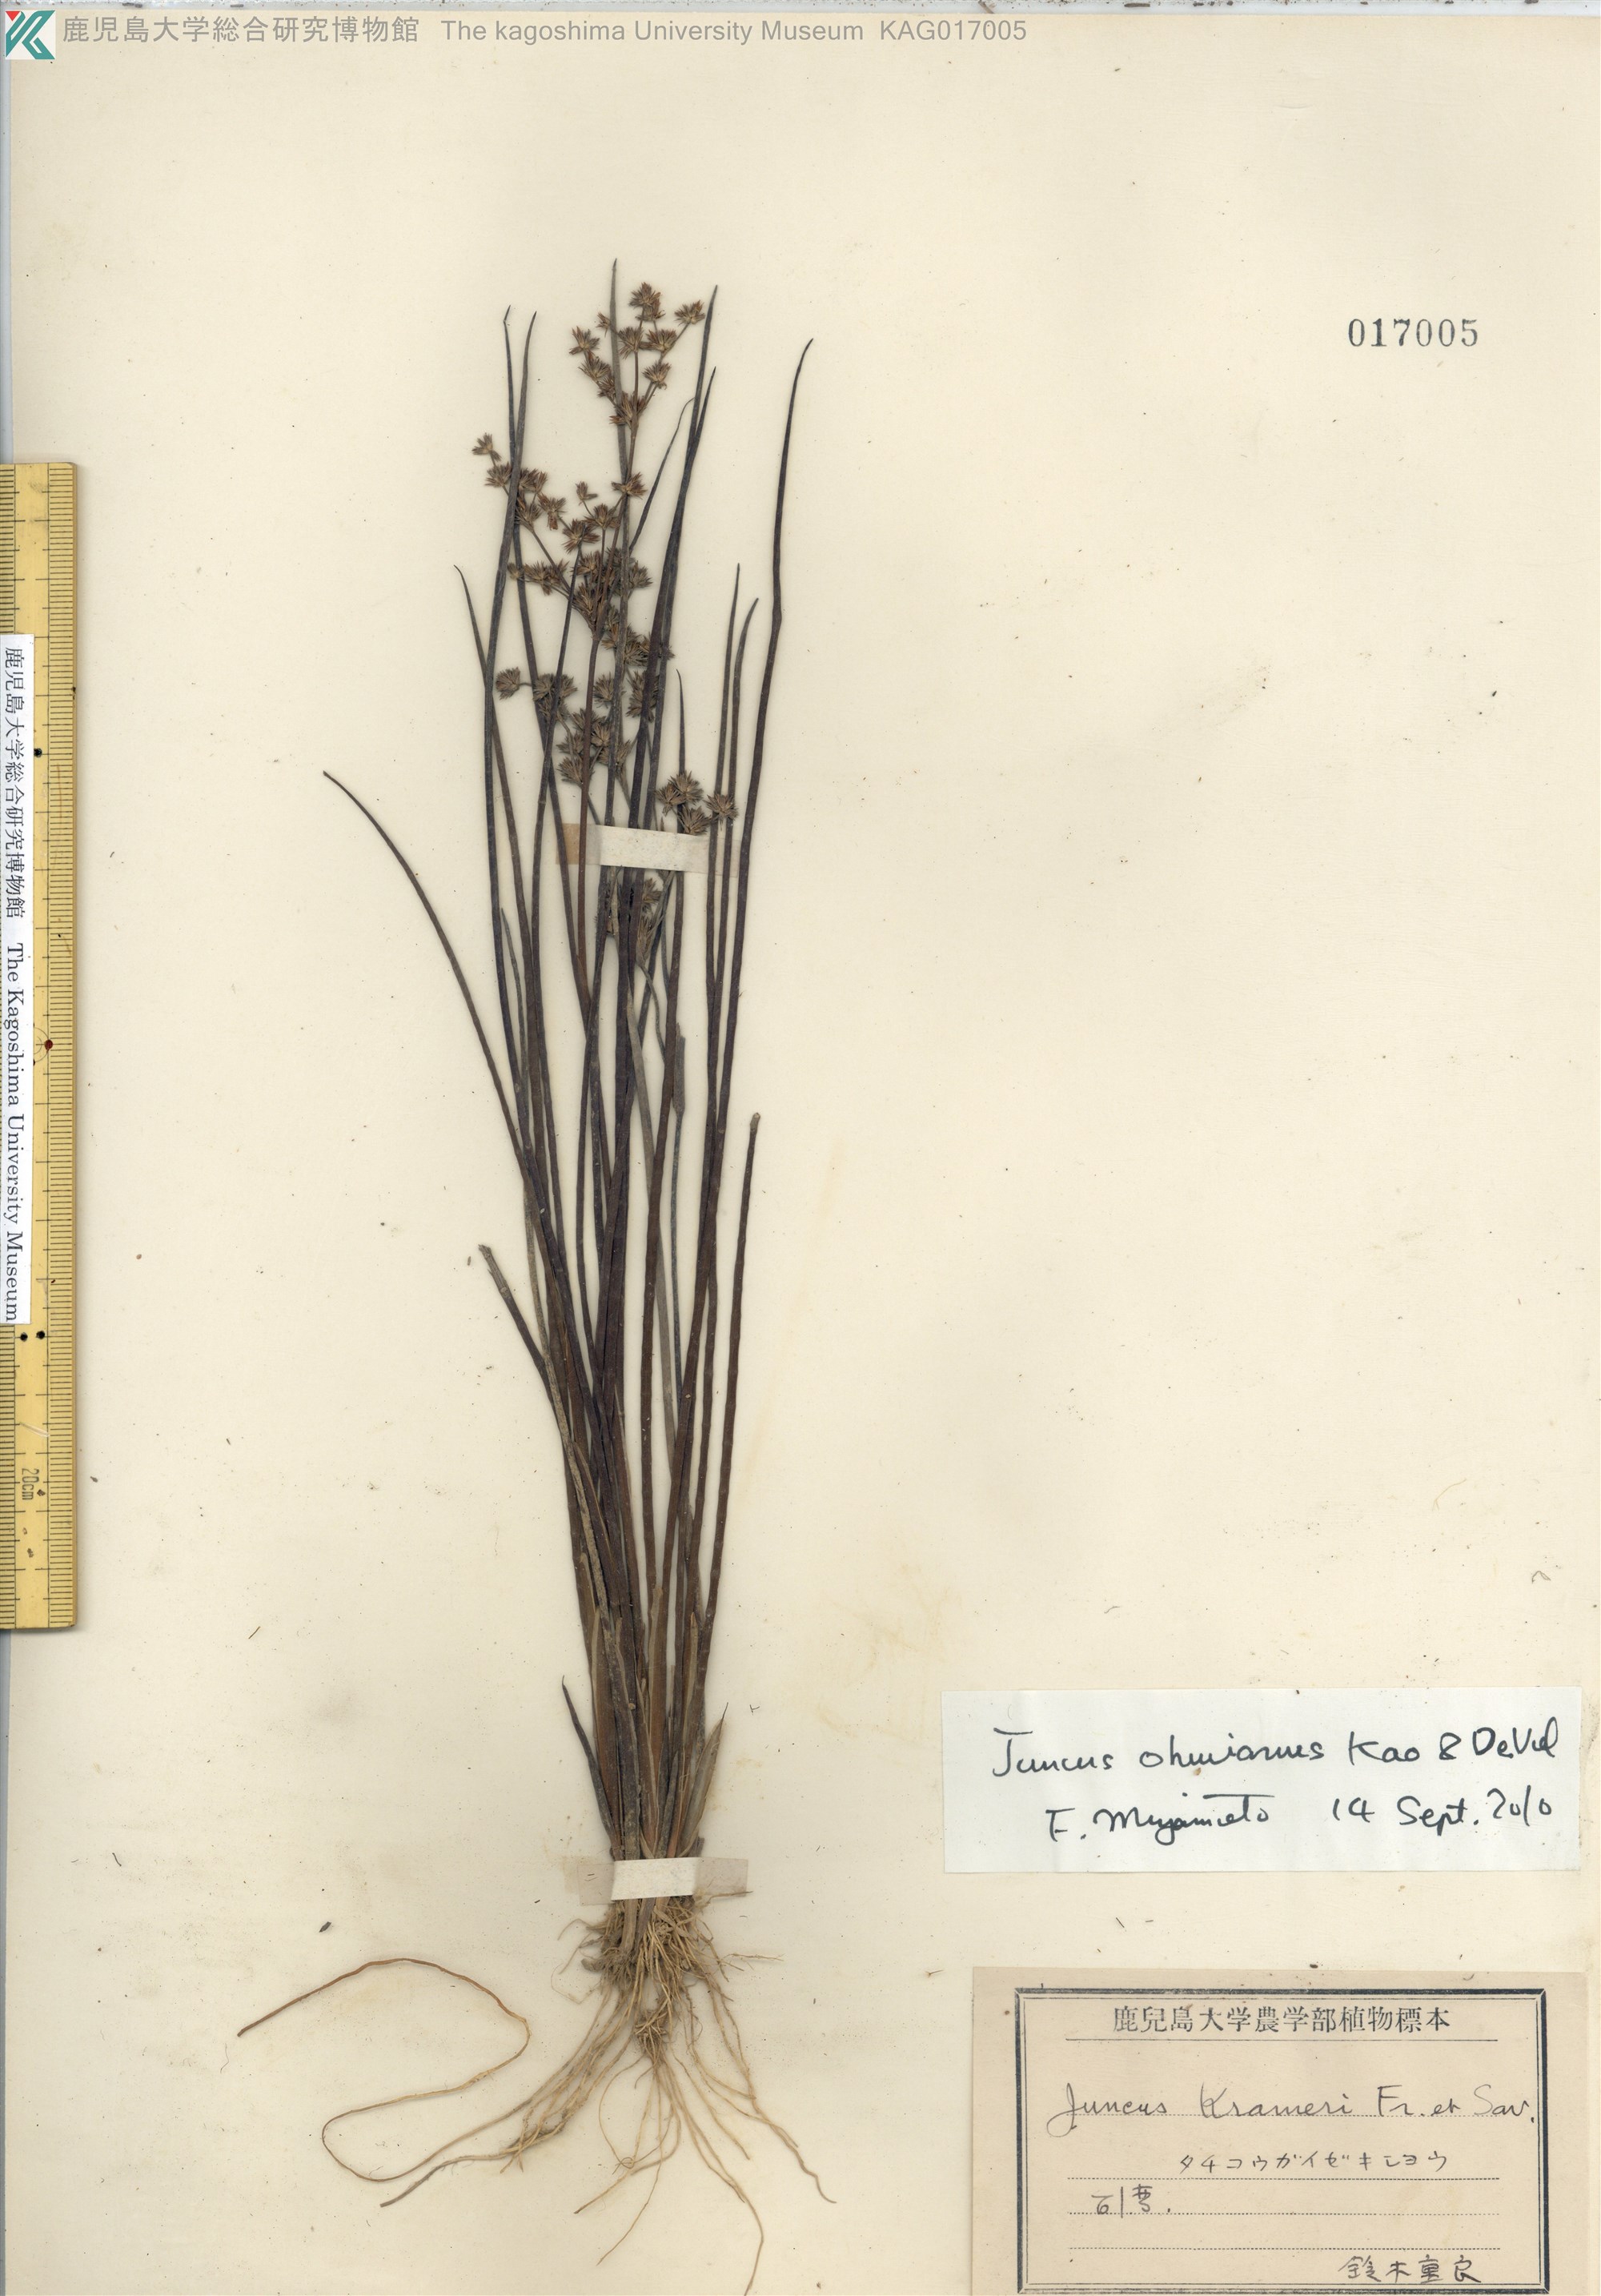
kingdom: Plantae
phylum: Tracheophyta
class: Liliopsida
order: Poales
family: Juncaceae
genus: Juncus
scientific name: Juncus wallichianus
